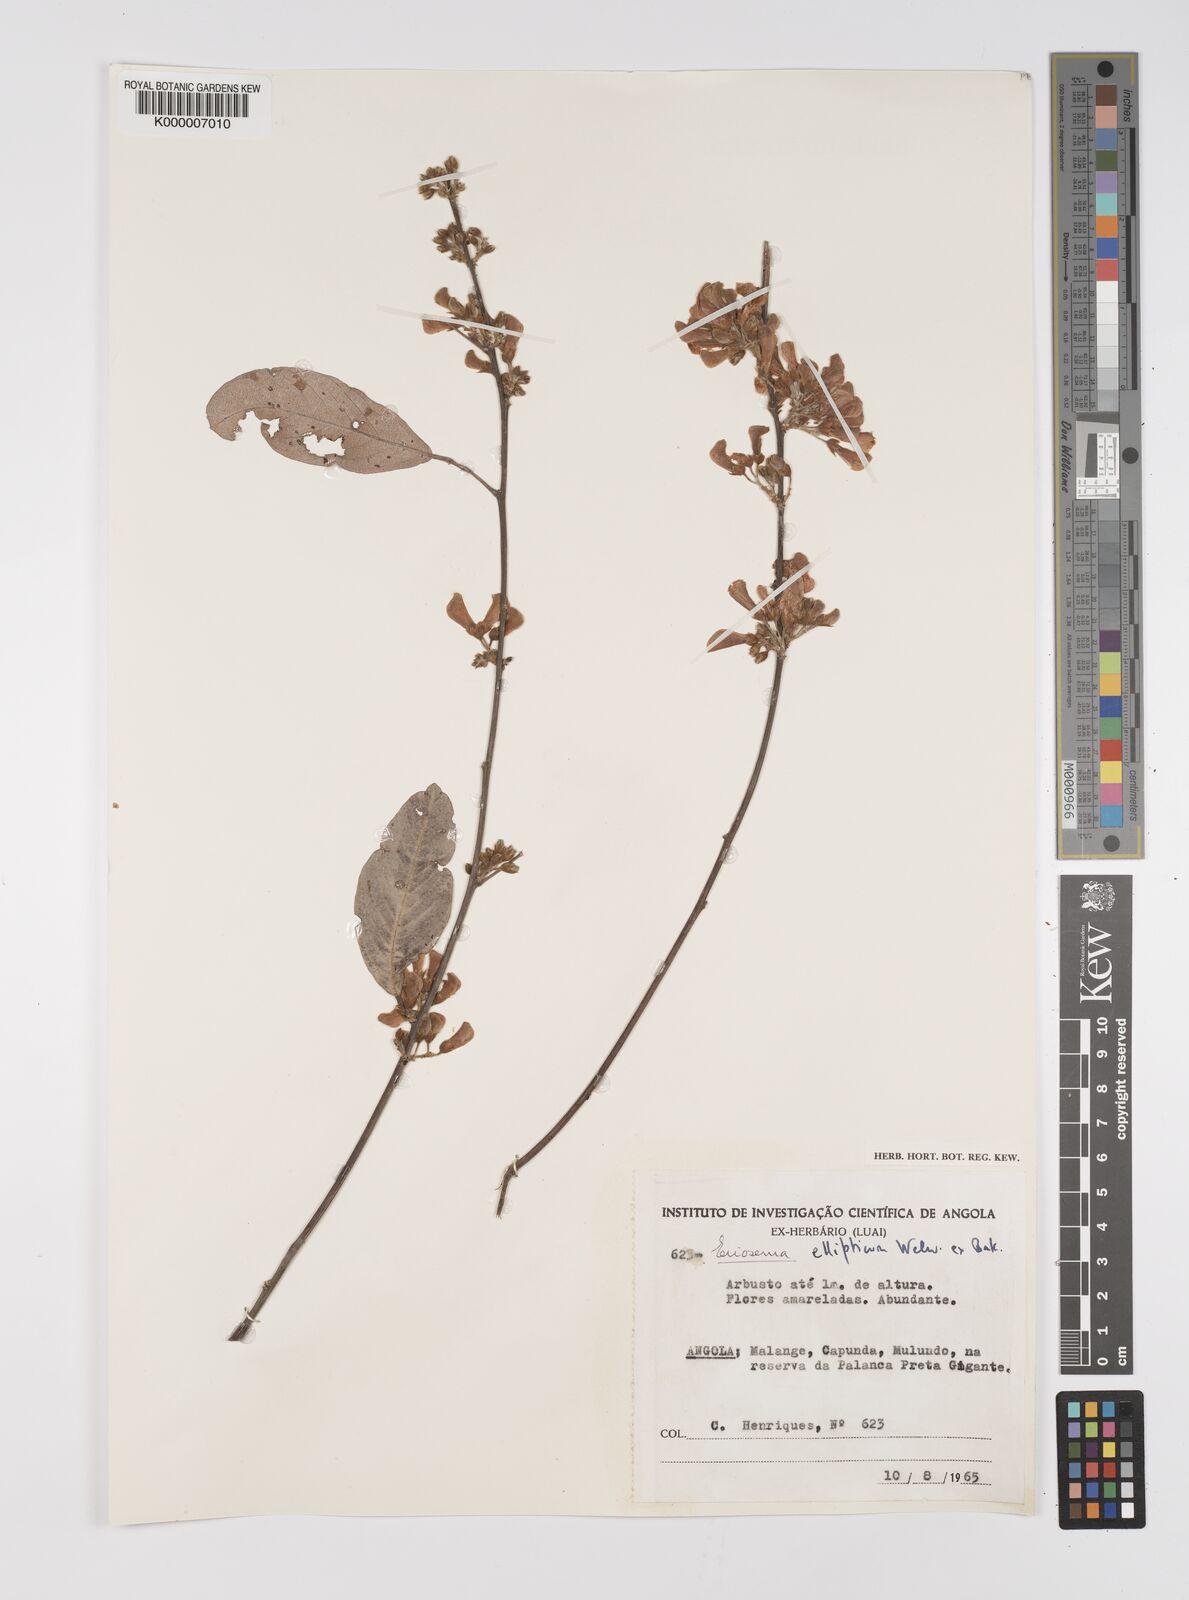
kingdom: Plantae
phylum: Tracheophyta
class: Magnoliopsida
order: Fabales
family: Fabaceae
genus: Eriosema
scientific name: Eriosema ellipticum
